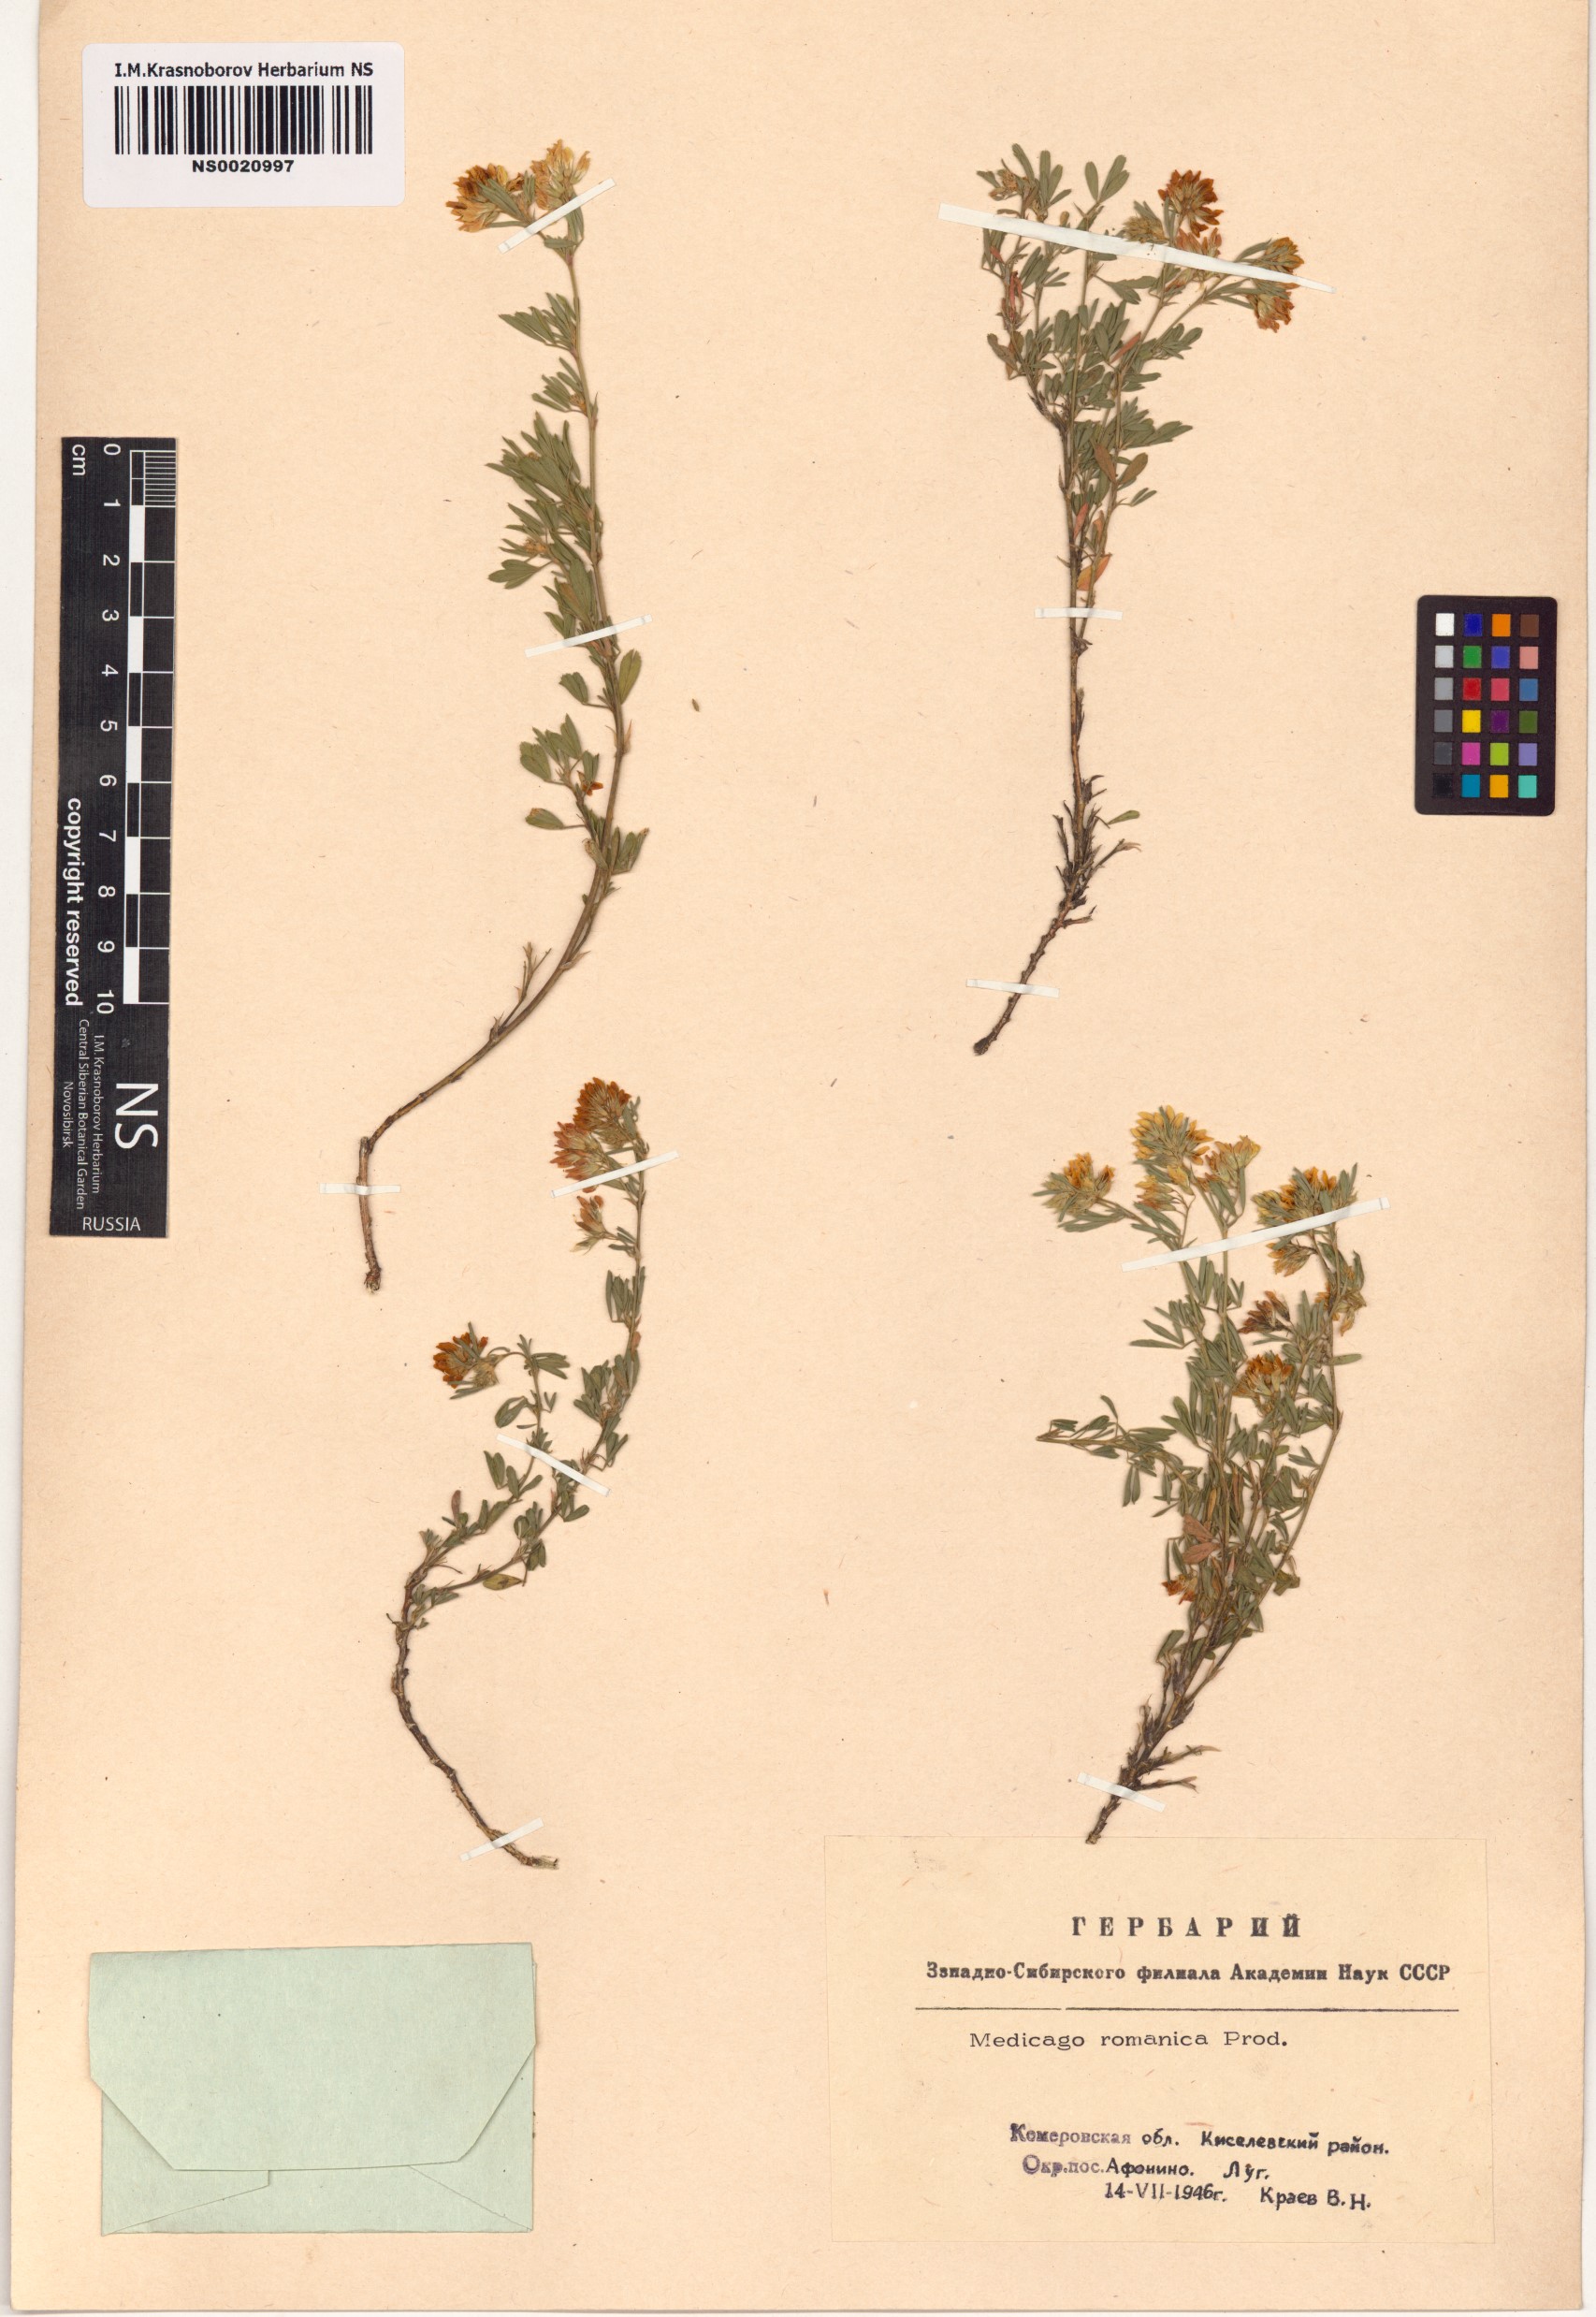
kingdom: Plantae
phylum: Tracheophyta
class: Magnoliopsida
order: Fabales
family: Fabaceae
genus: Medicago
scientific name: Medicago falcata
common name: Sickle medick
